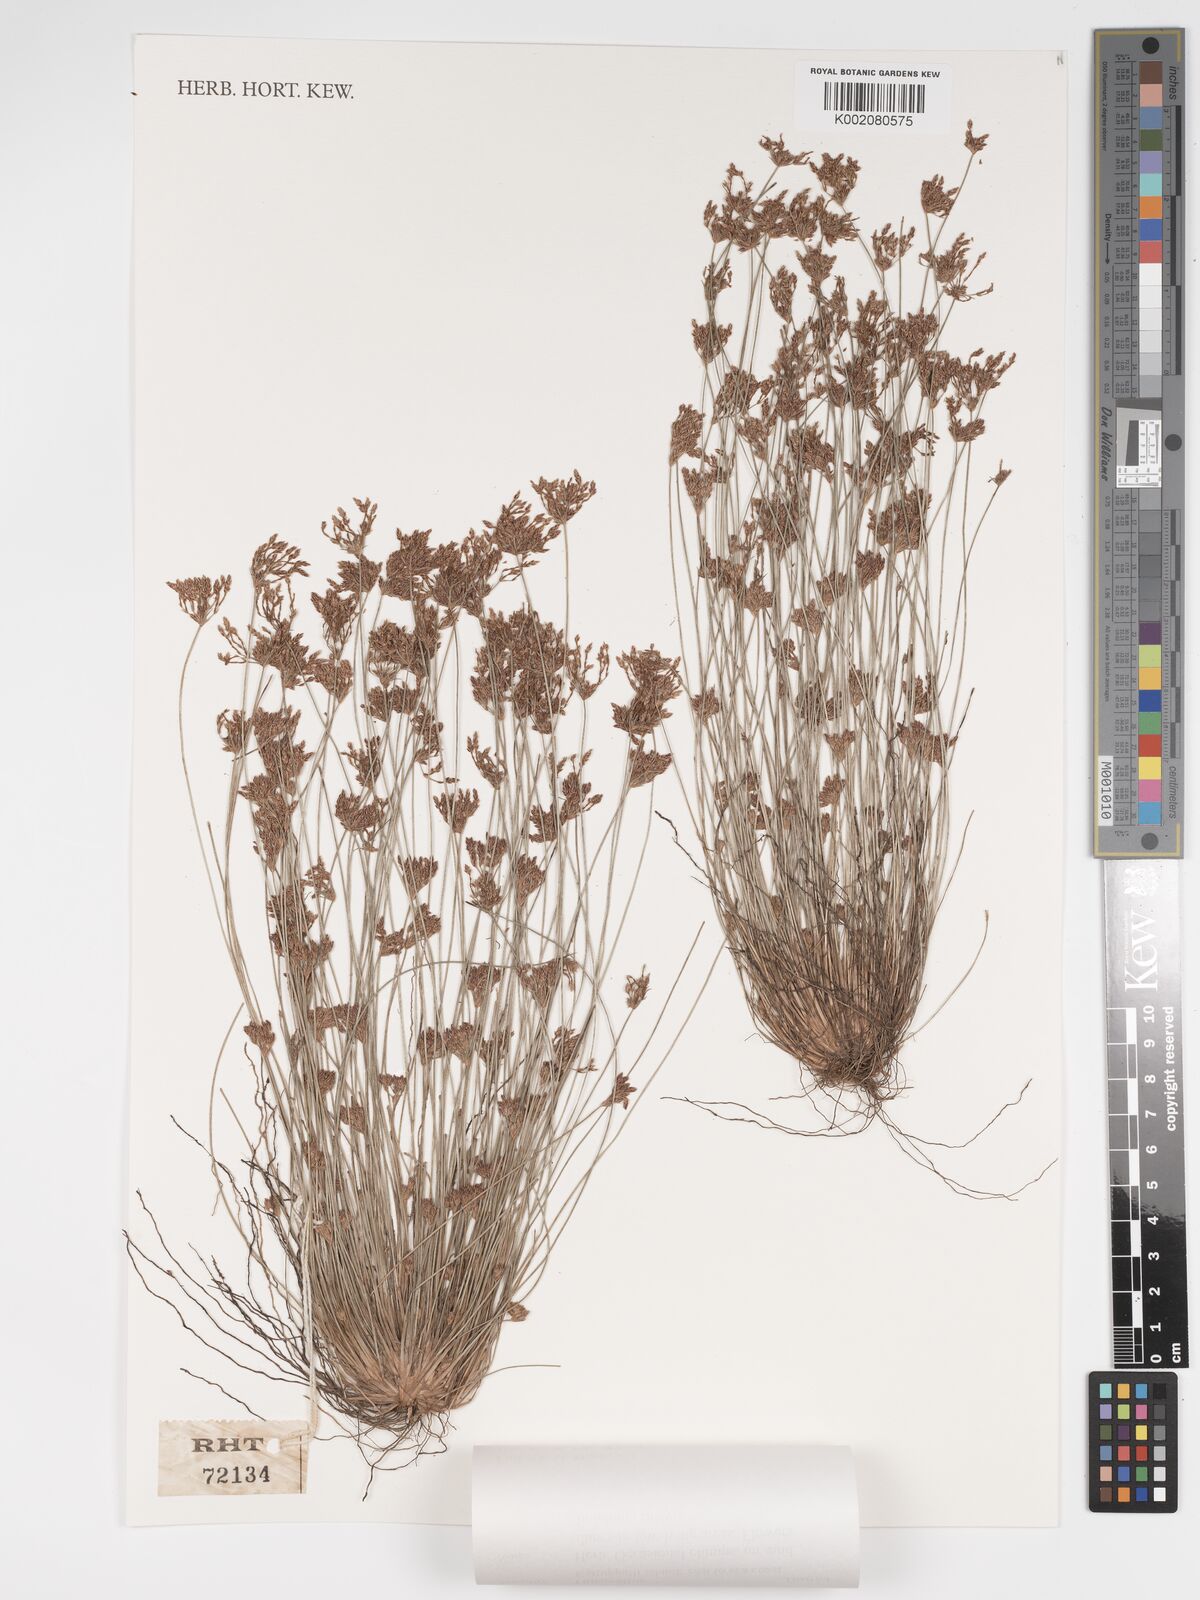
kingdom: Plantae
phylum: Tracheophyta
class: Liliopsida
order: Poales
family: Cyperaceae
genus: Bulbostylis
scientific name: Bulbostylis thouarsii
